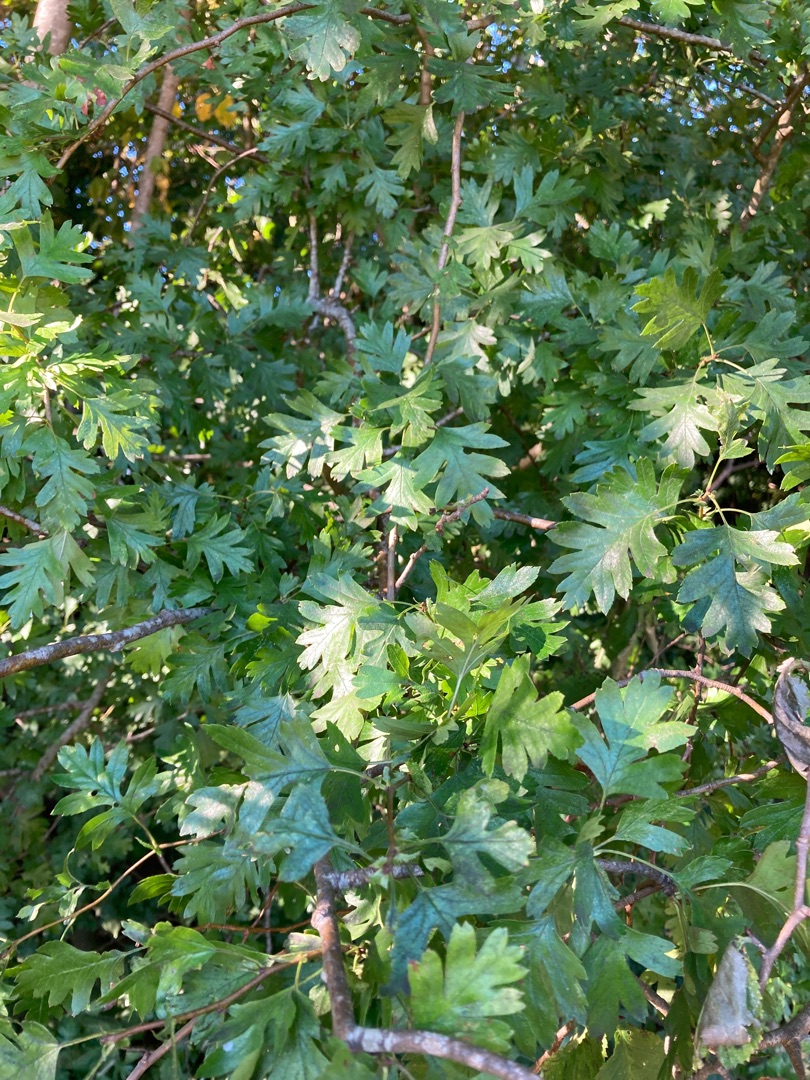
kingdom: Plantae
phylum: Tracheophyta
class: Magnoliopsida
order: Rosales
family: Rosaceae
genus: Crataegus
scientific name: Crataegus monogyna
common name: Engriflet hvidtjørn
